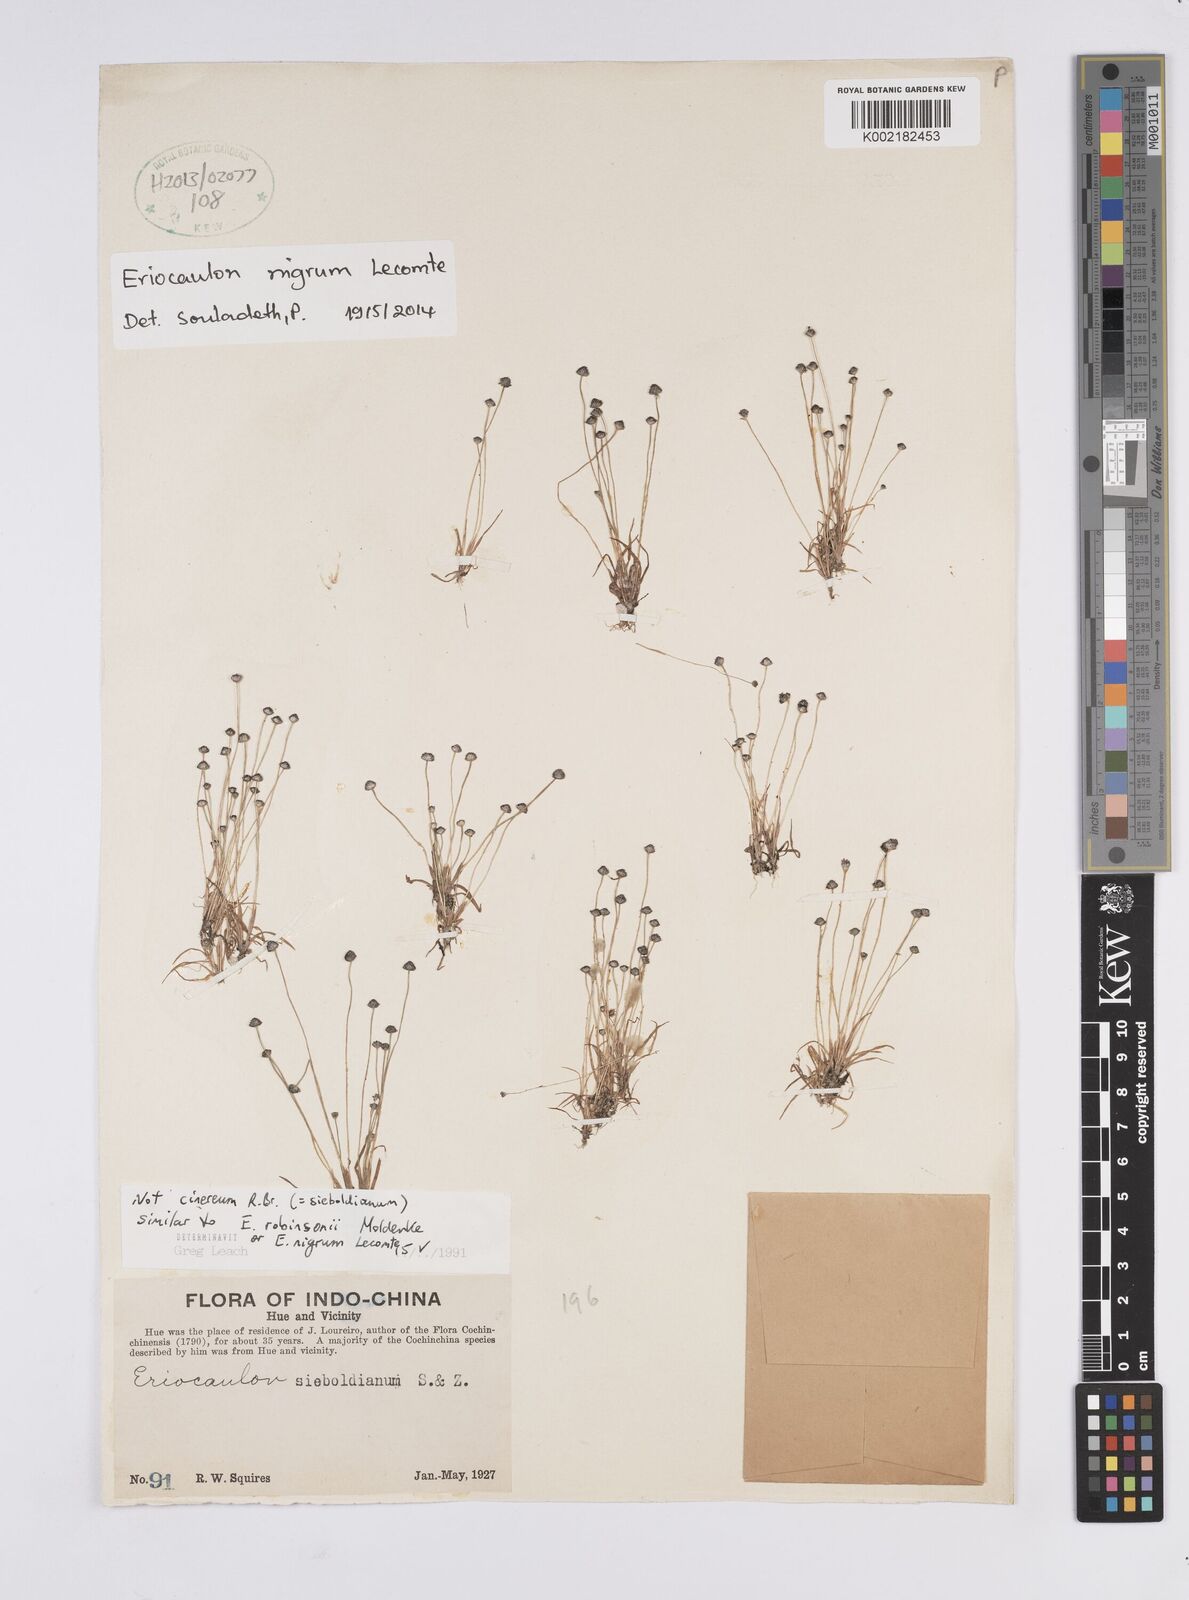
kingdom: Plantae
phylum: Tracheophyta
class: Liliopsida
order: Poales
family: Eriocaulaceae
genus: Eriocaulon
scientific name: Eriocaulon nigrum
